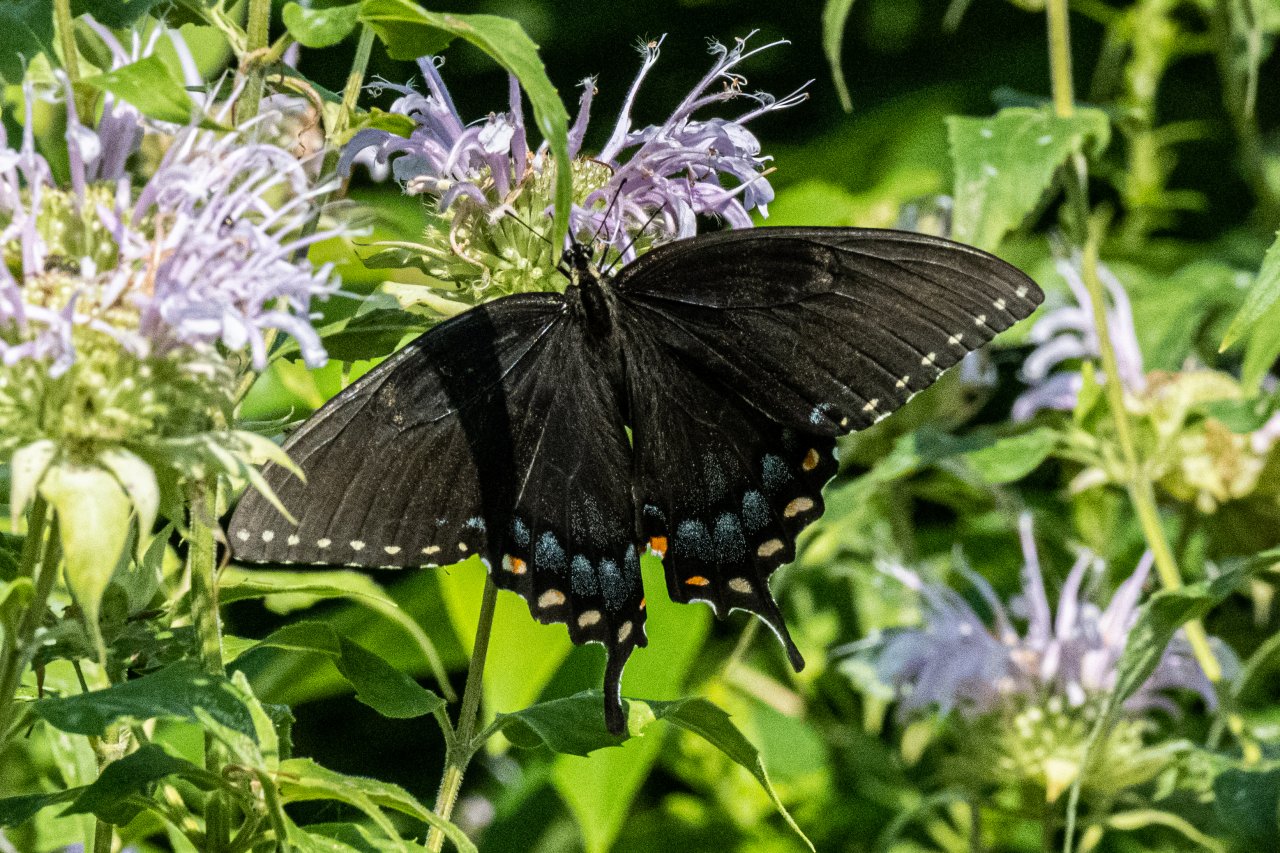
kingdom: Animalia
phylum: Arthropoda
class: Insecta
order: Lepidoptera
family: Papilionidae
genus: Pterourus
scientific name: Pterourus glaucus
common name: Eastern Tiger Swallowtail
